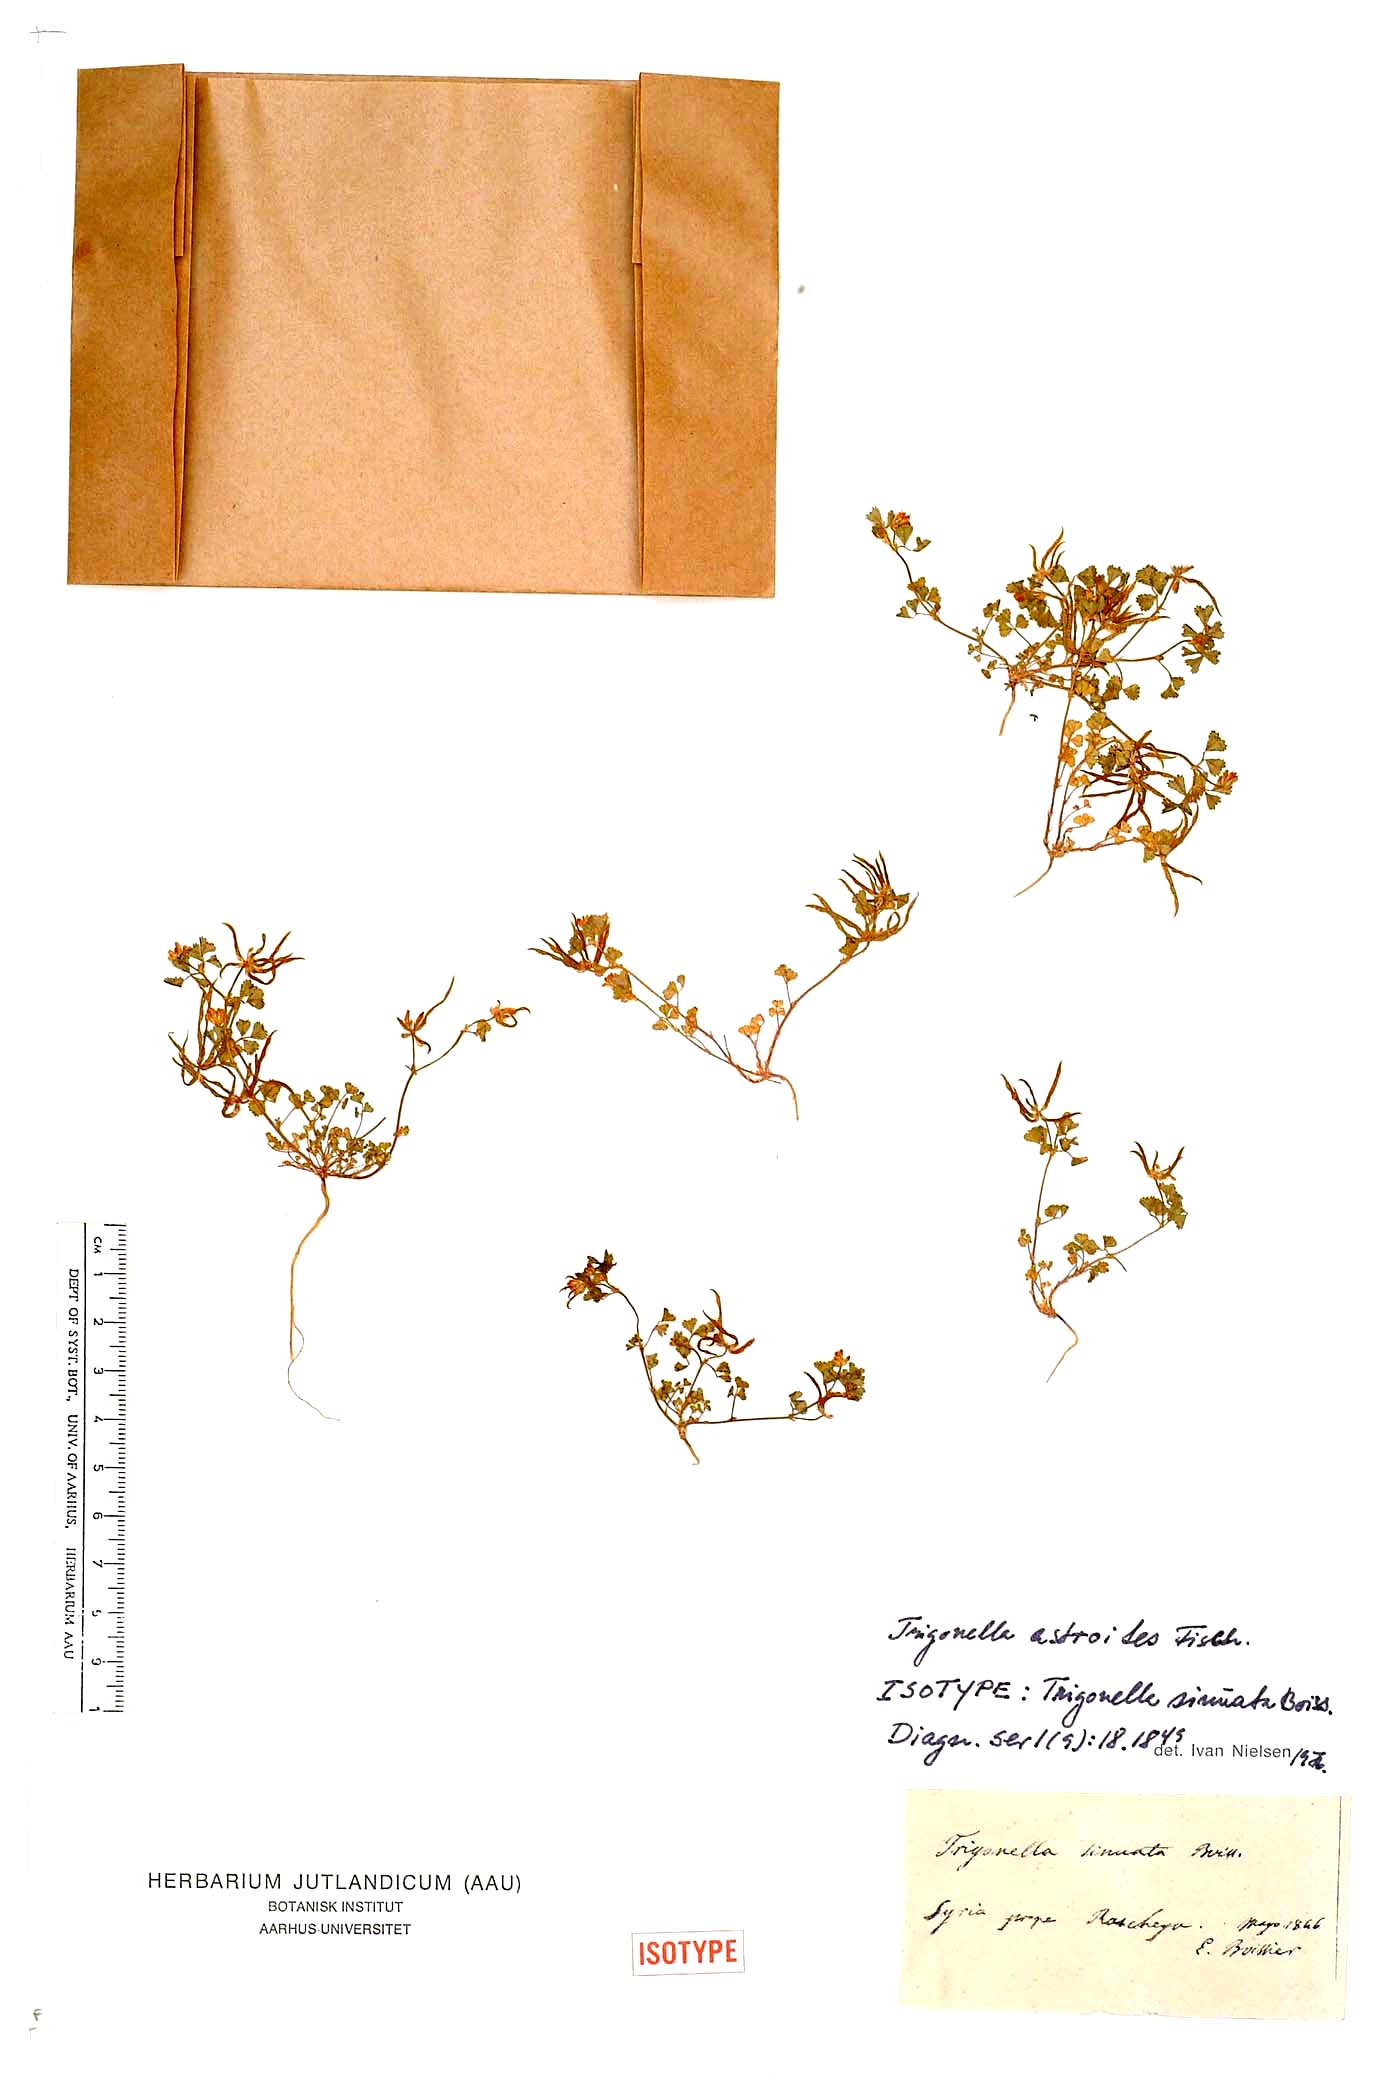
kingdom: Plantae
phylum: Tracheophyta
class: Magnoliopsida
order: Fabales
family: Fabaceae
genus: Trigonella
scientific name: Trigonella astroides
